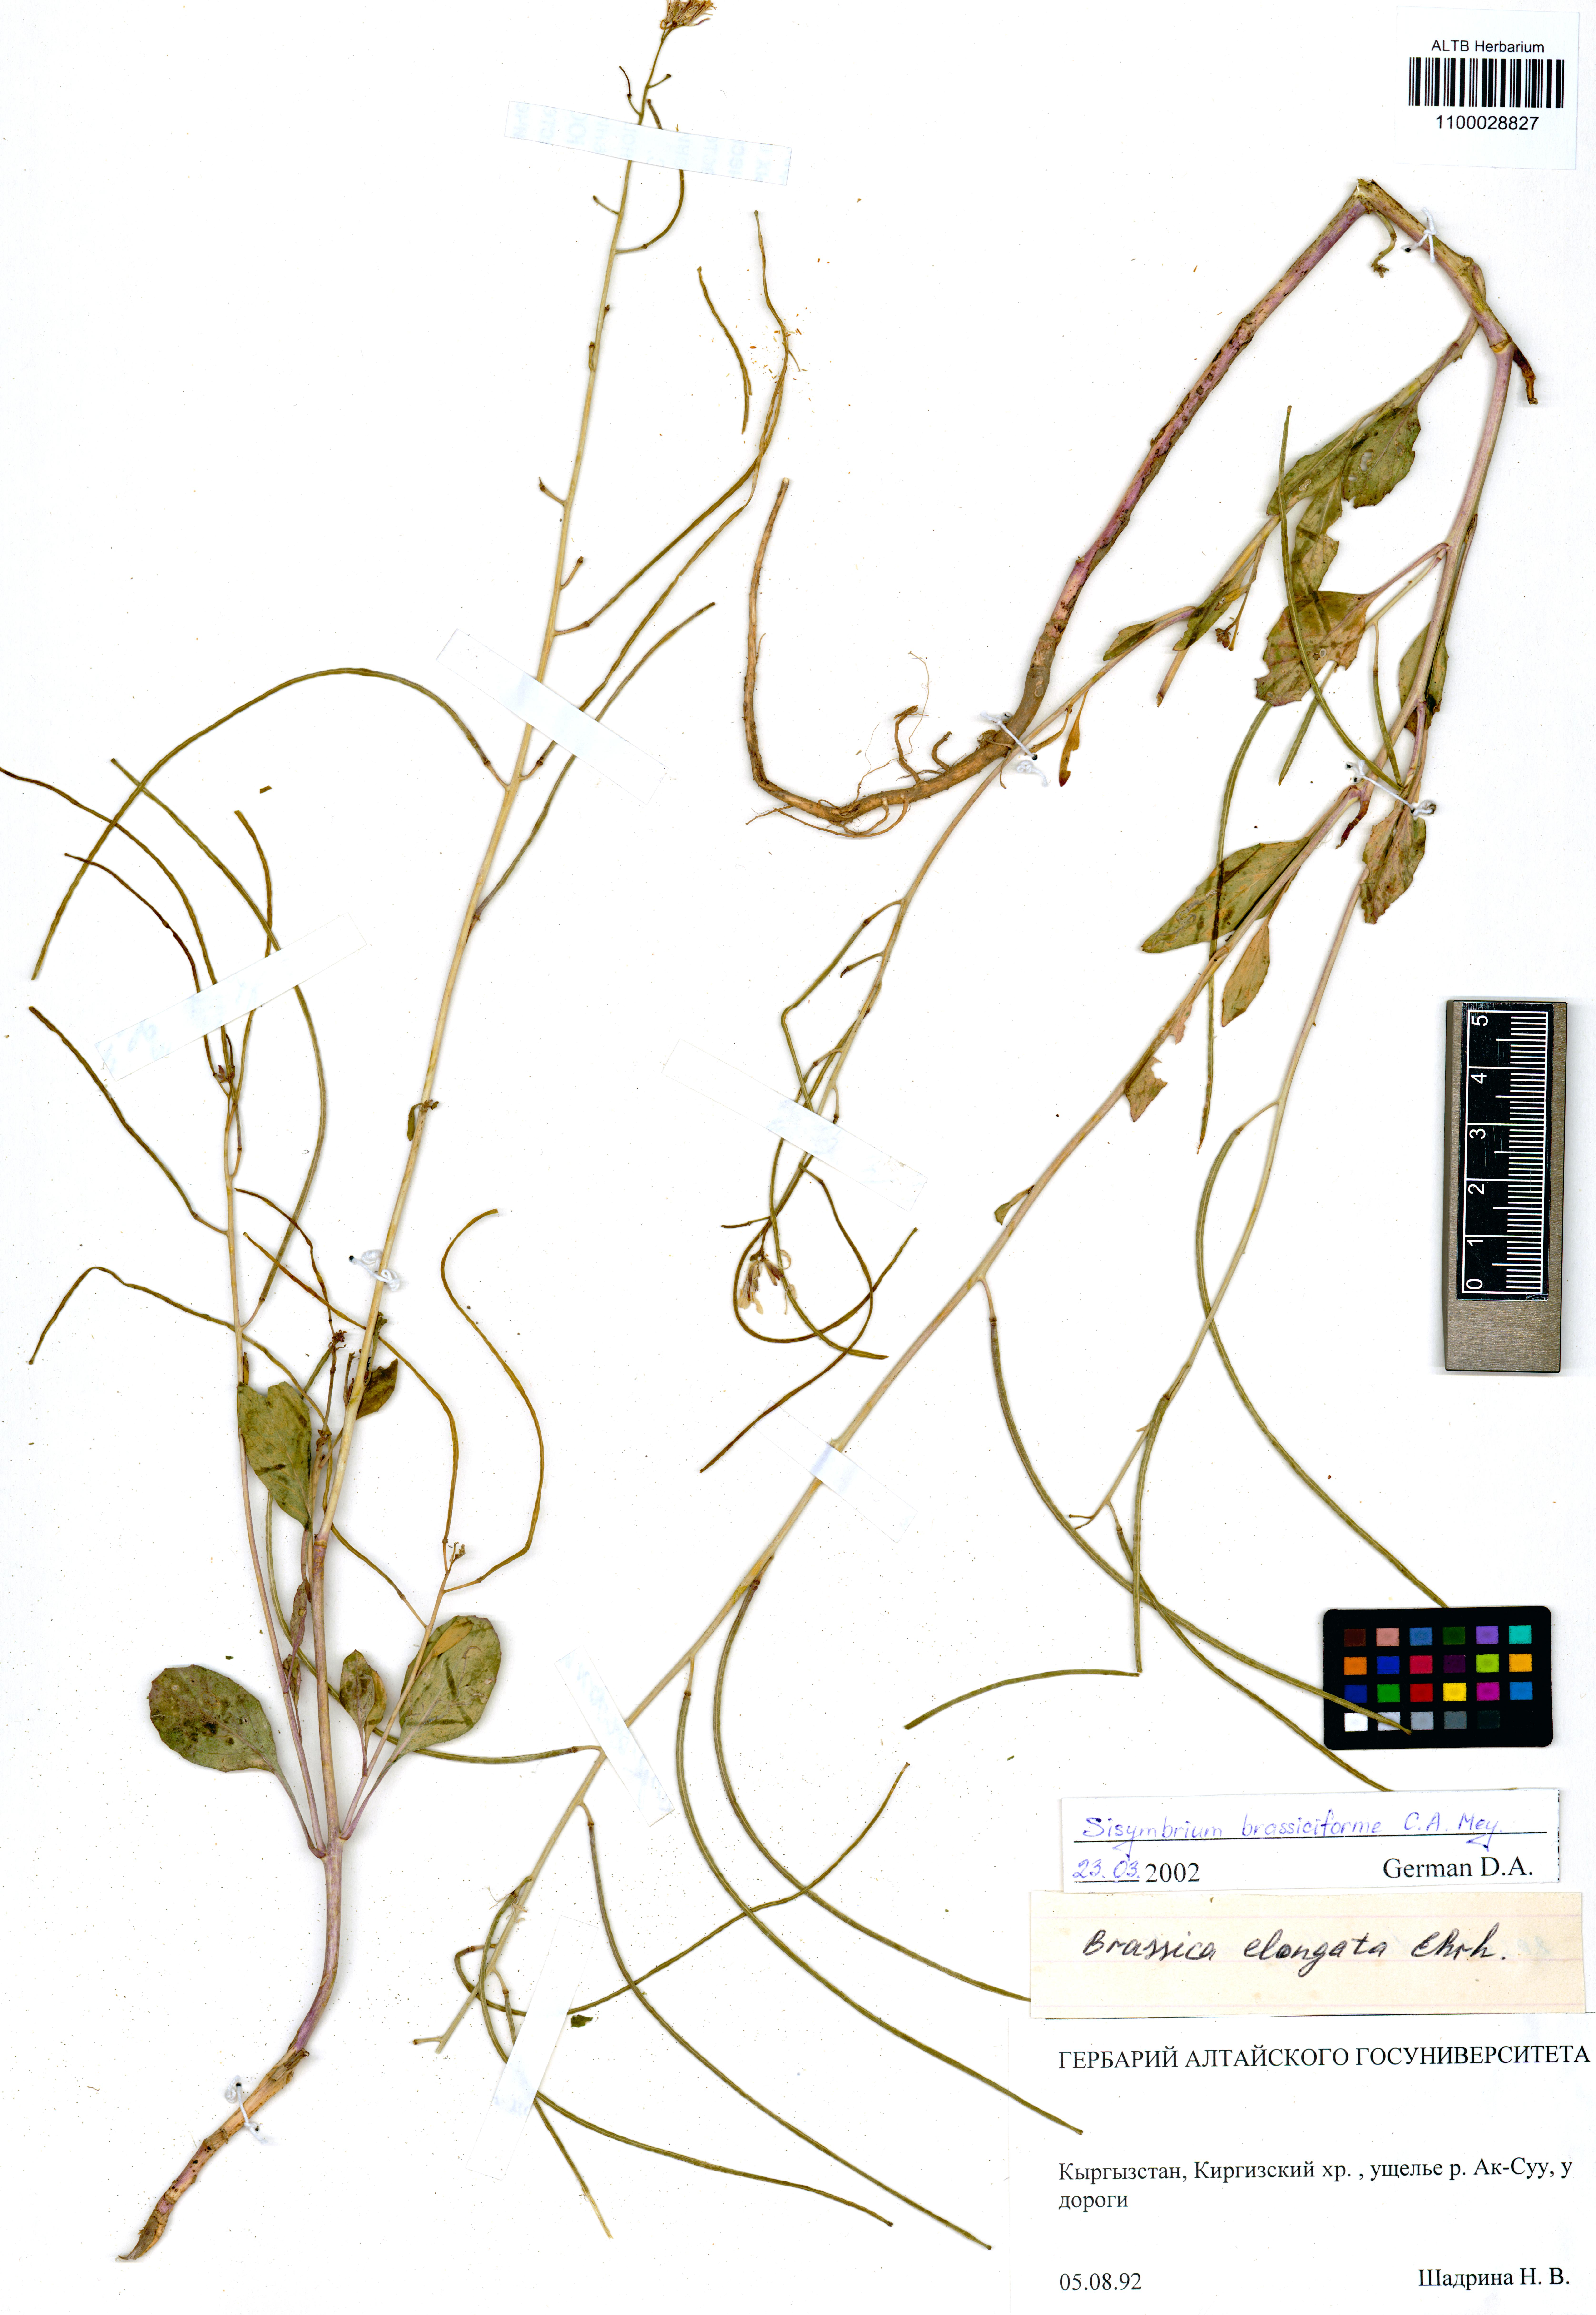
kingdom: Plantae
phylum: Tracheophyta
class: Magnoliopsida
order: Brassicales
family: Brassicaceae
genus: Sisymbrium
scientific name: Sisymbrium brassiciforme
